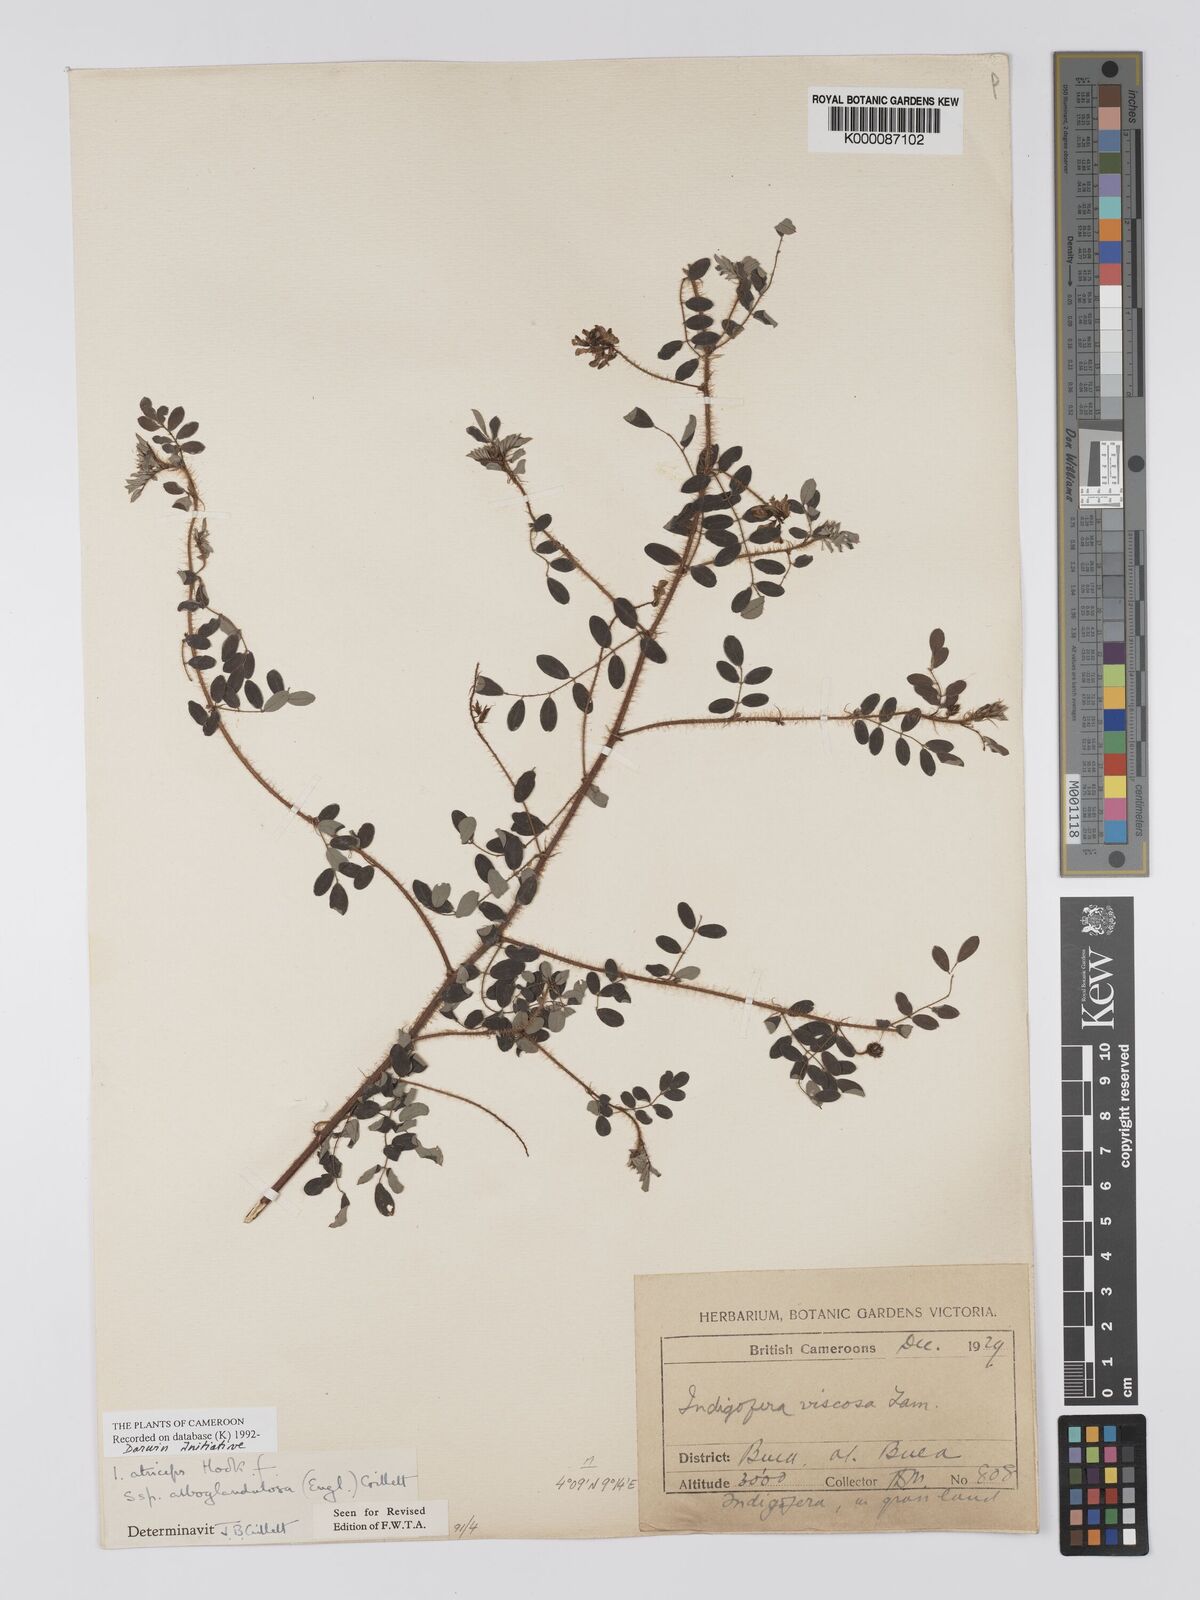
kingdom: Plantae
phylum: Tracheophyta
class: Magnoliopsida
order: Fabales
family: Fabaceae
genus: Indigofera
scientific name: Indigofera atriceps
